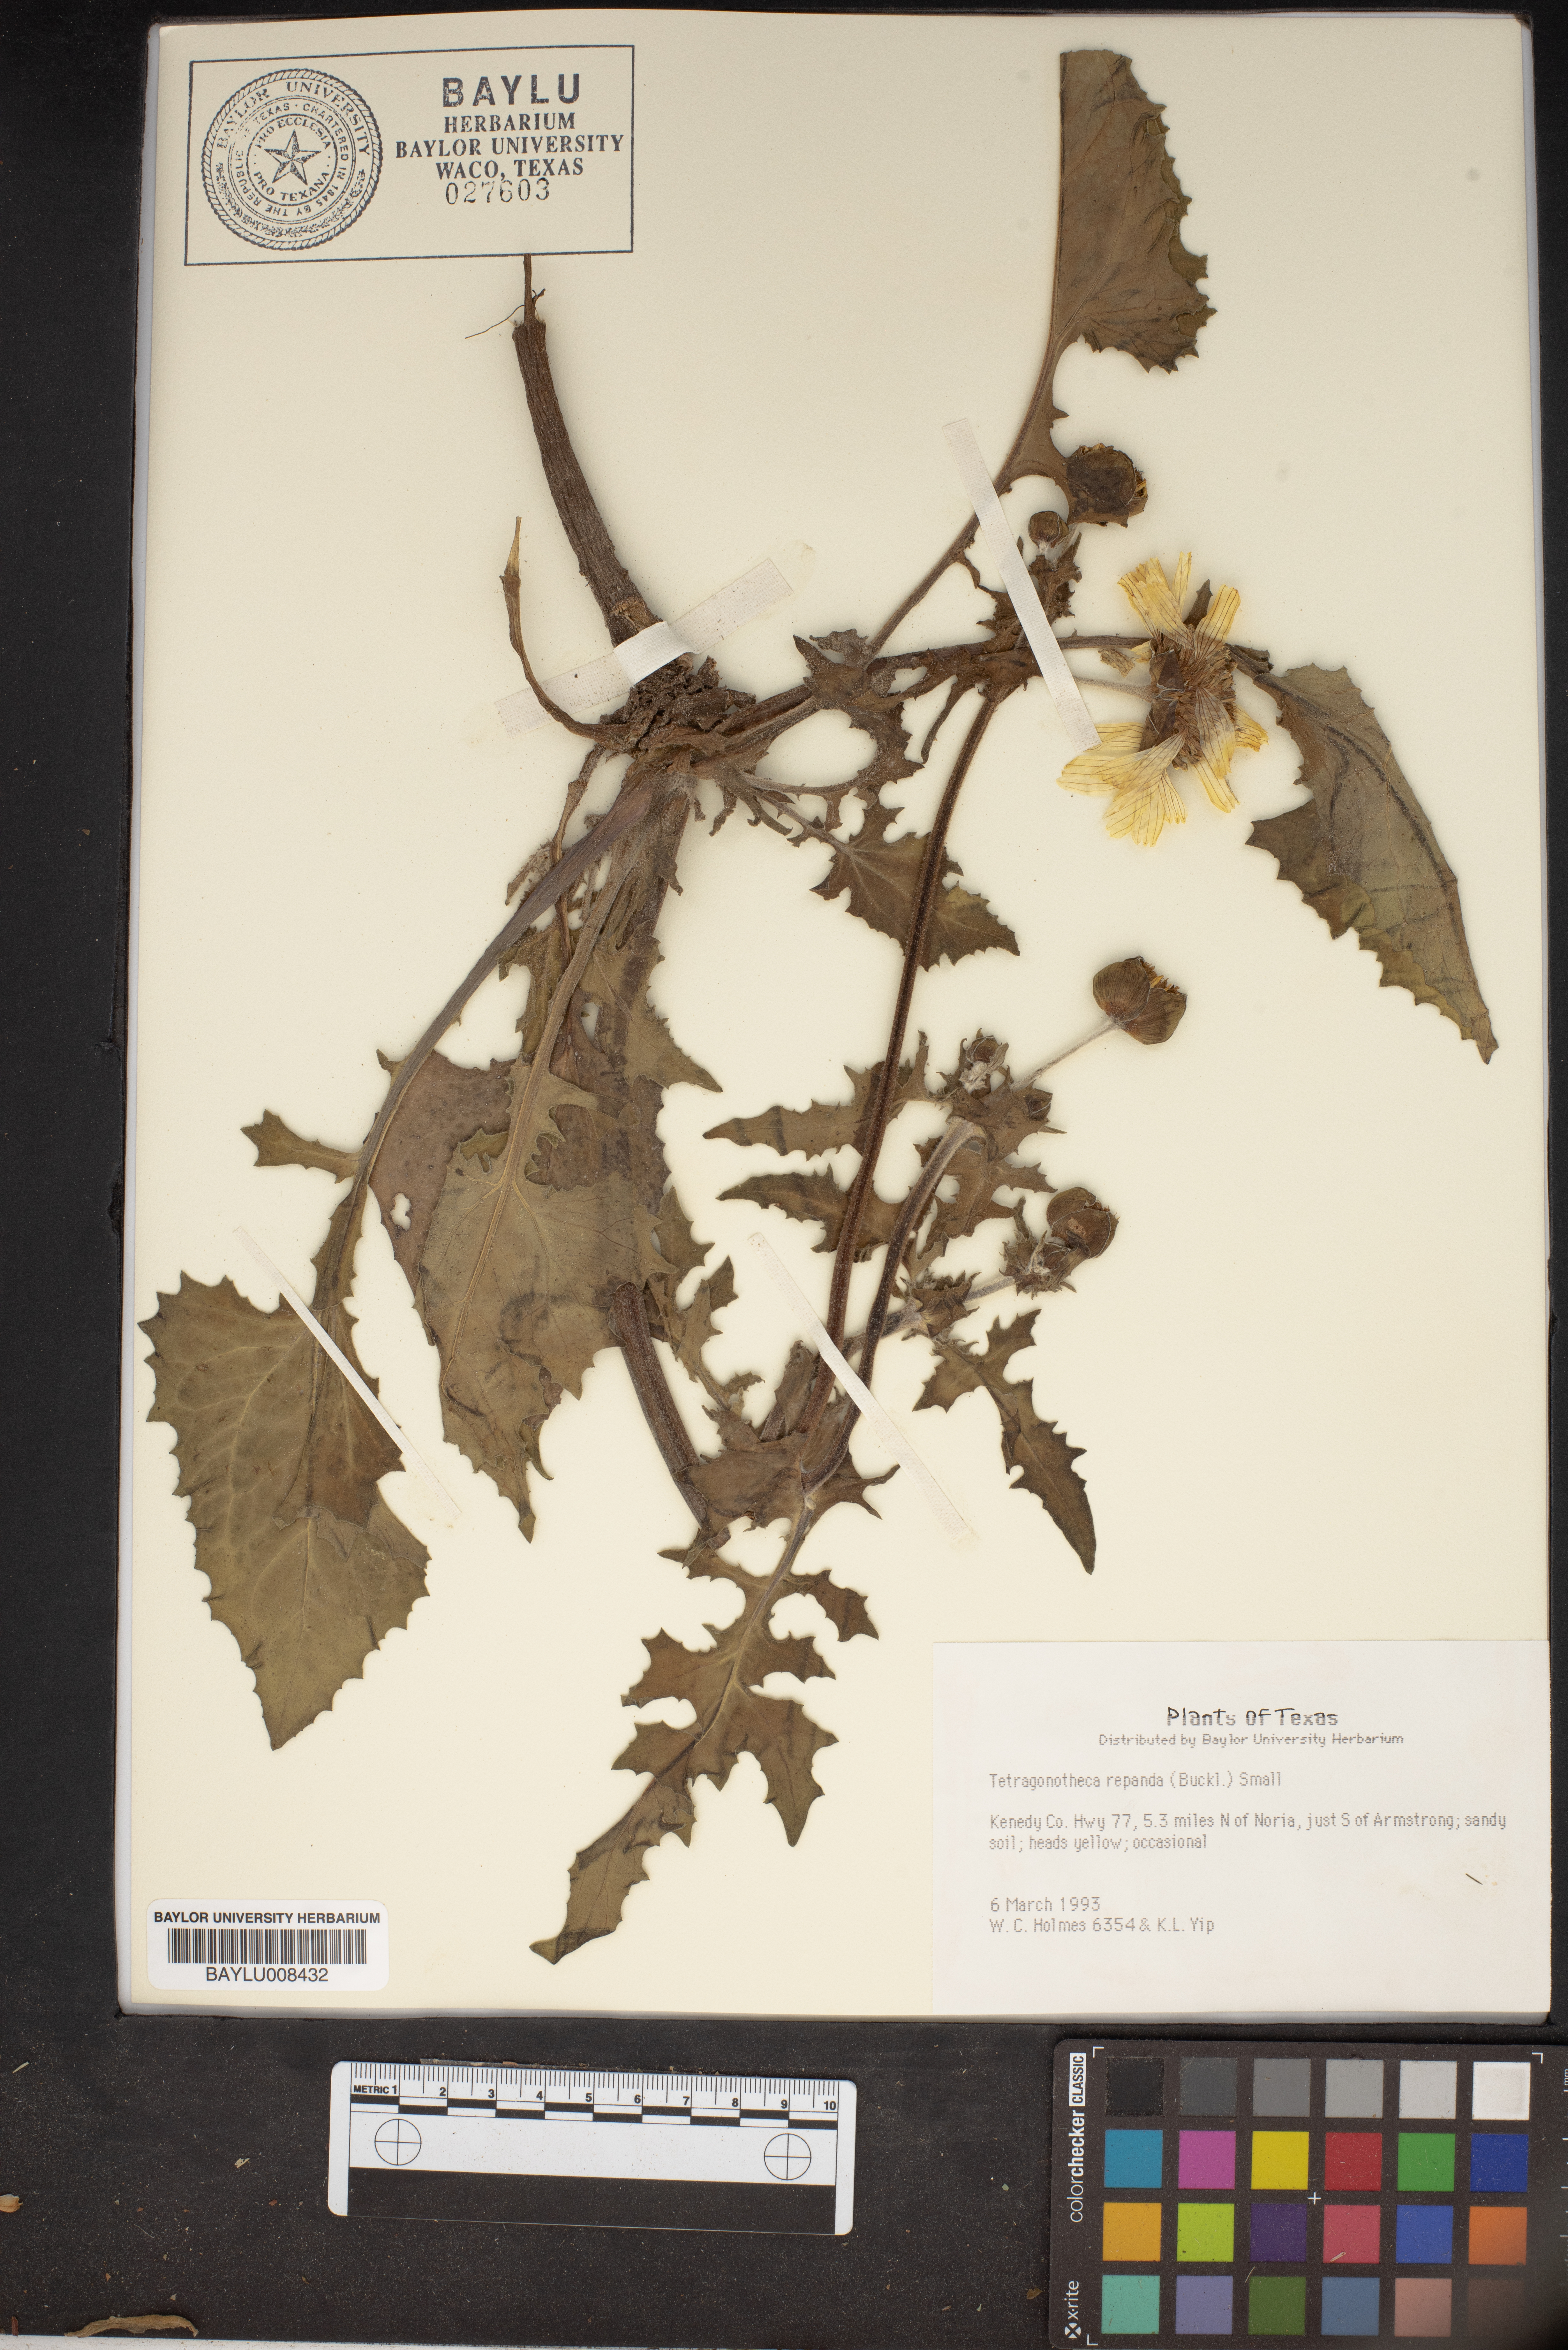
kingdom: Plantae
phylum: Tracheophyta
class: Magnoliopsida
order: Asterales
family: Asteraceae
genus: Tetragonotheca
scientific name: Tetragonotheca repanda
